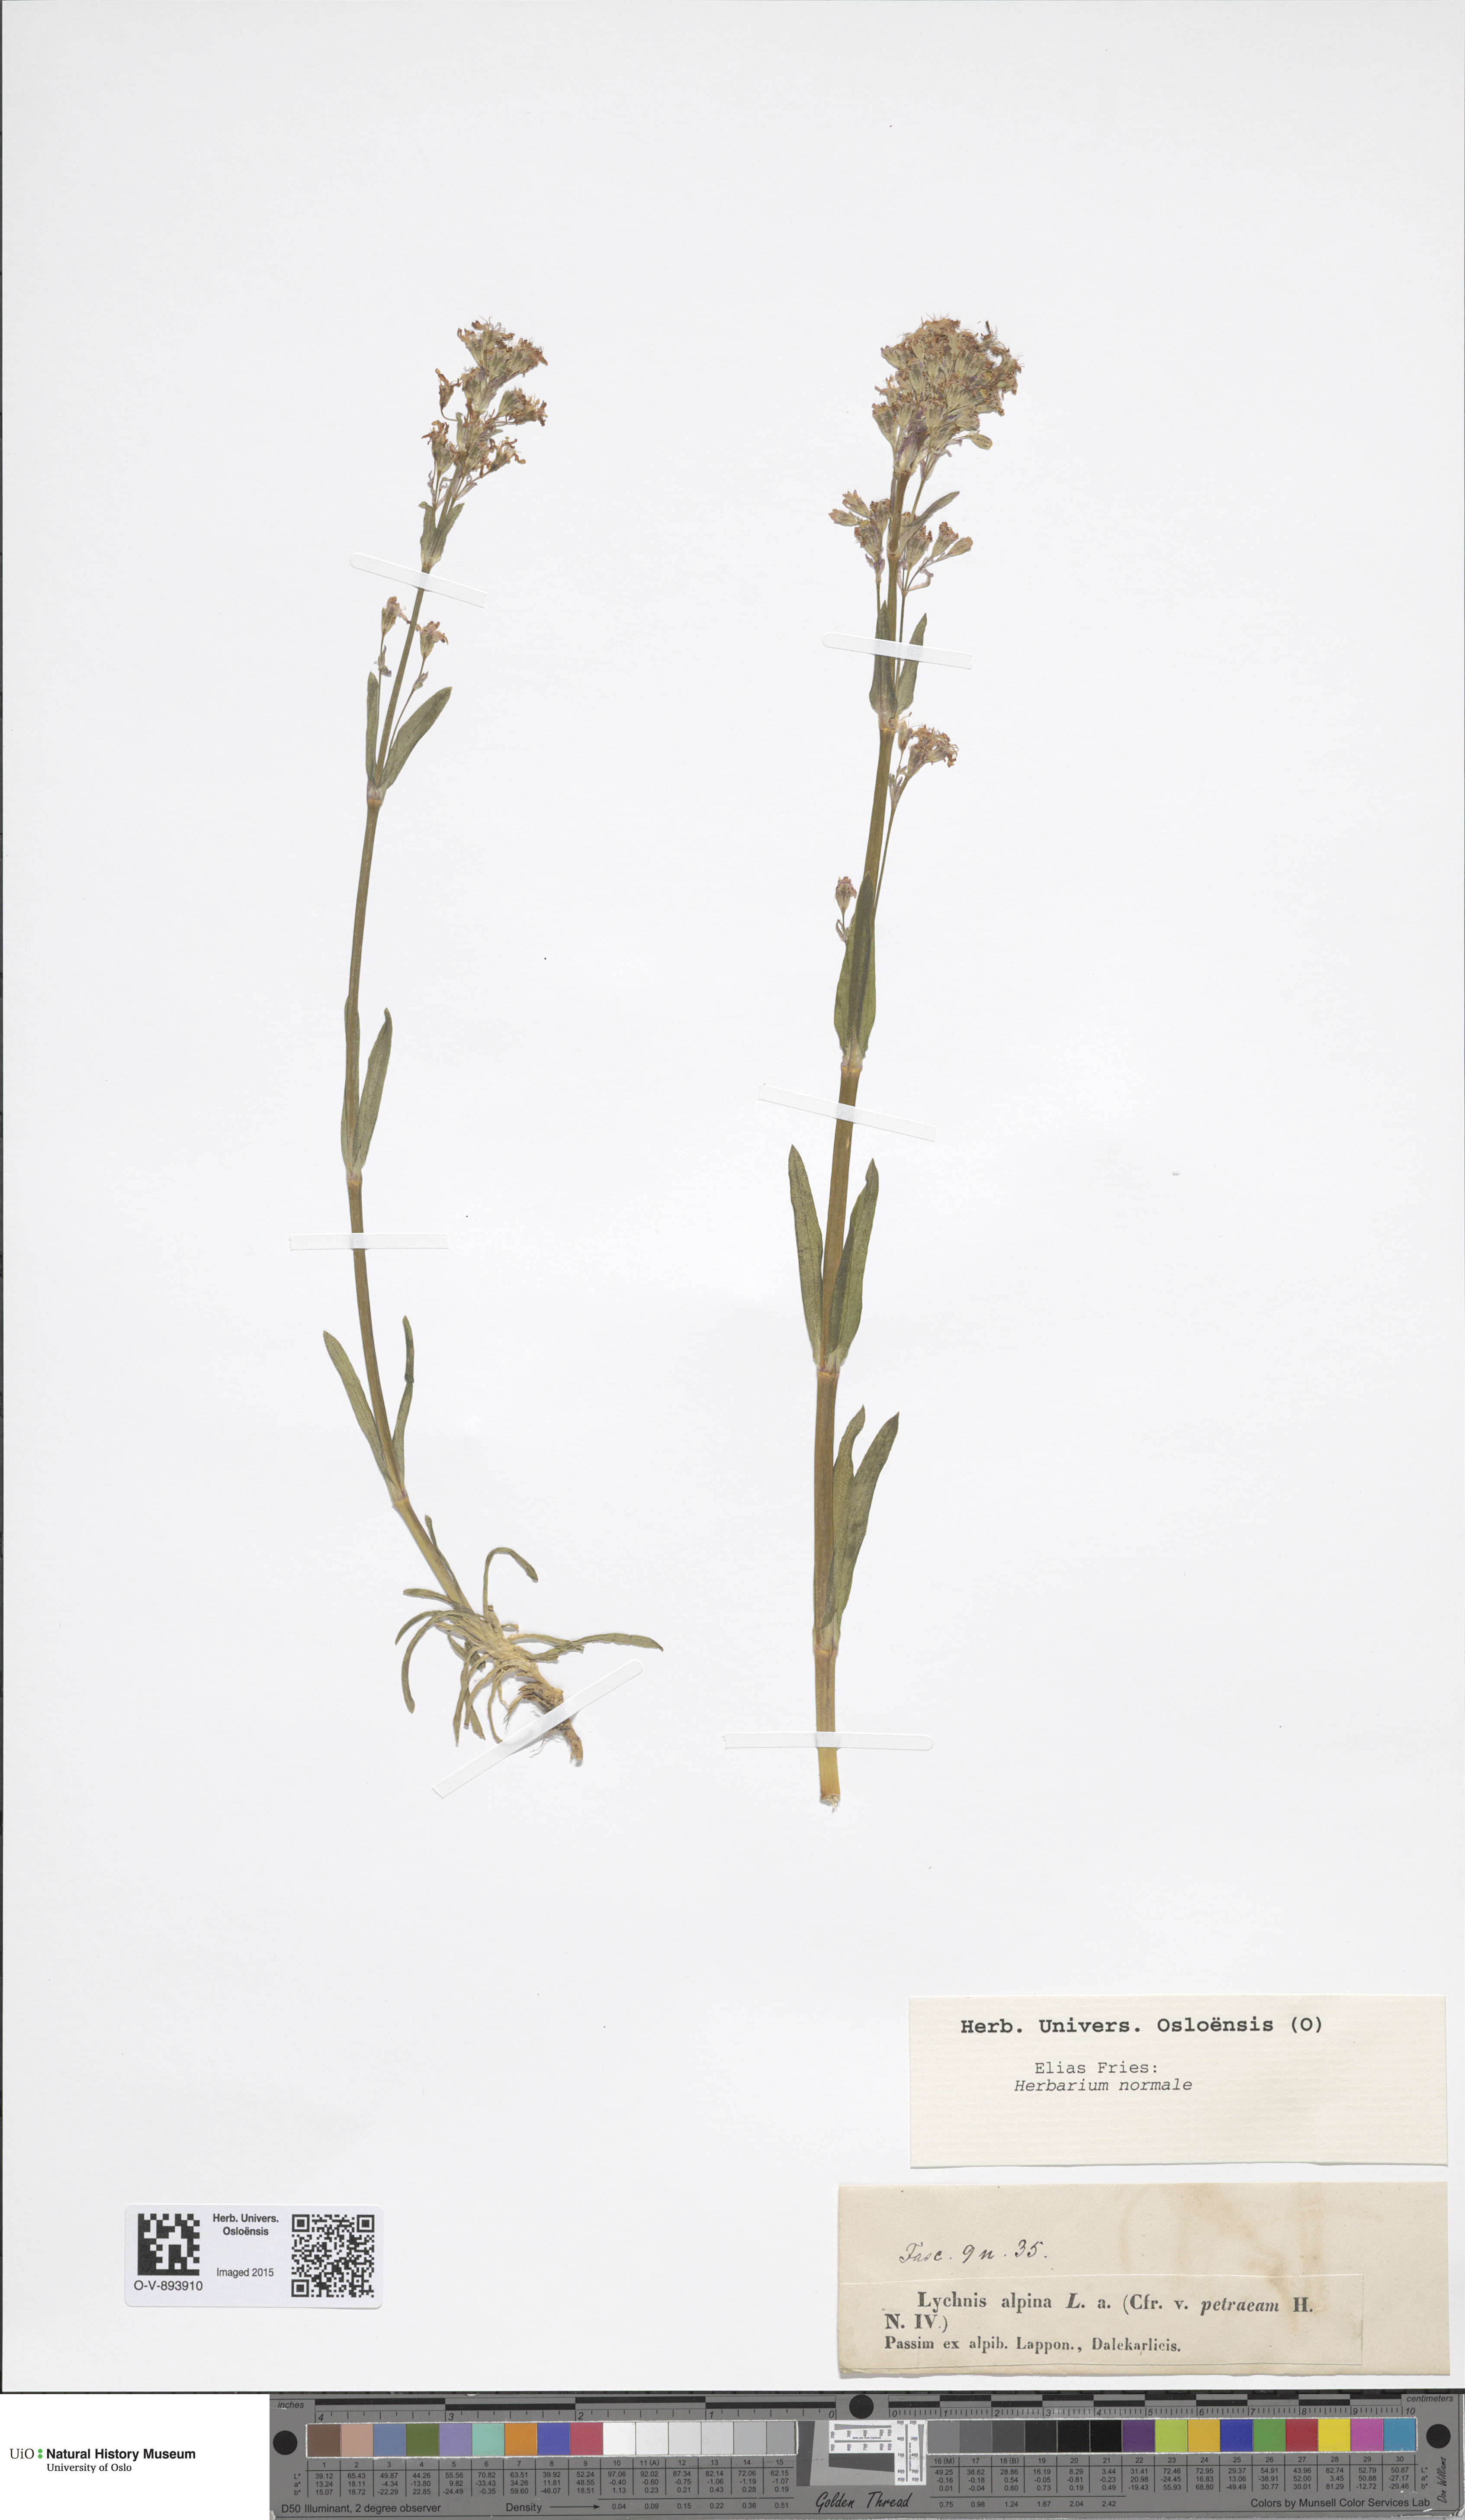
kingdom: Plantae
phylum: Tracheophyta
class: Magnoliopsida
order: Caryophyllales
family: Caryophyllaceae
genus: Viscaria
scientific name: Viscaria alpina
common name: Alpine campion
